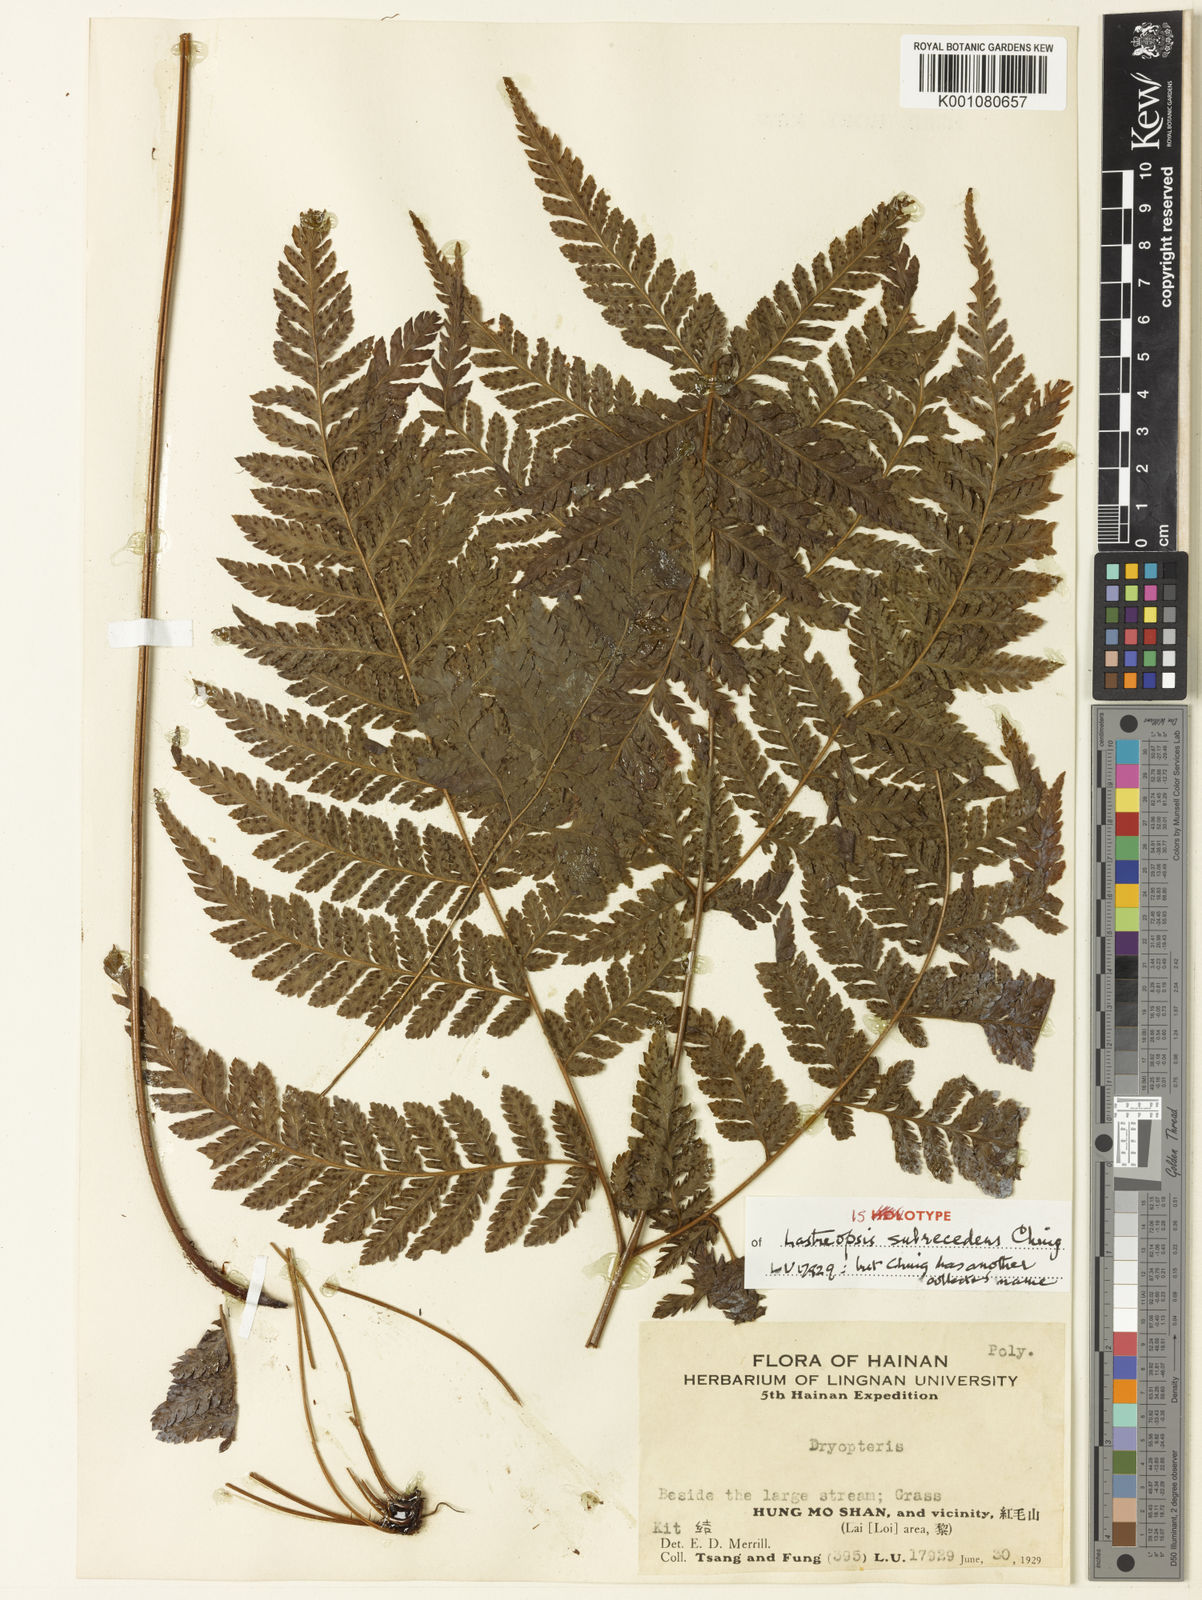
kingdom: Plantae
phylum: Tracheophyta
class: Polypodiopsida
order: Polypodiales
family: Dryopteridaceae
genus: Lastreopsis
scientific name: Lastreopsis subrecedens
